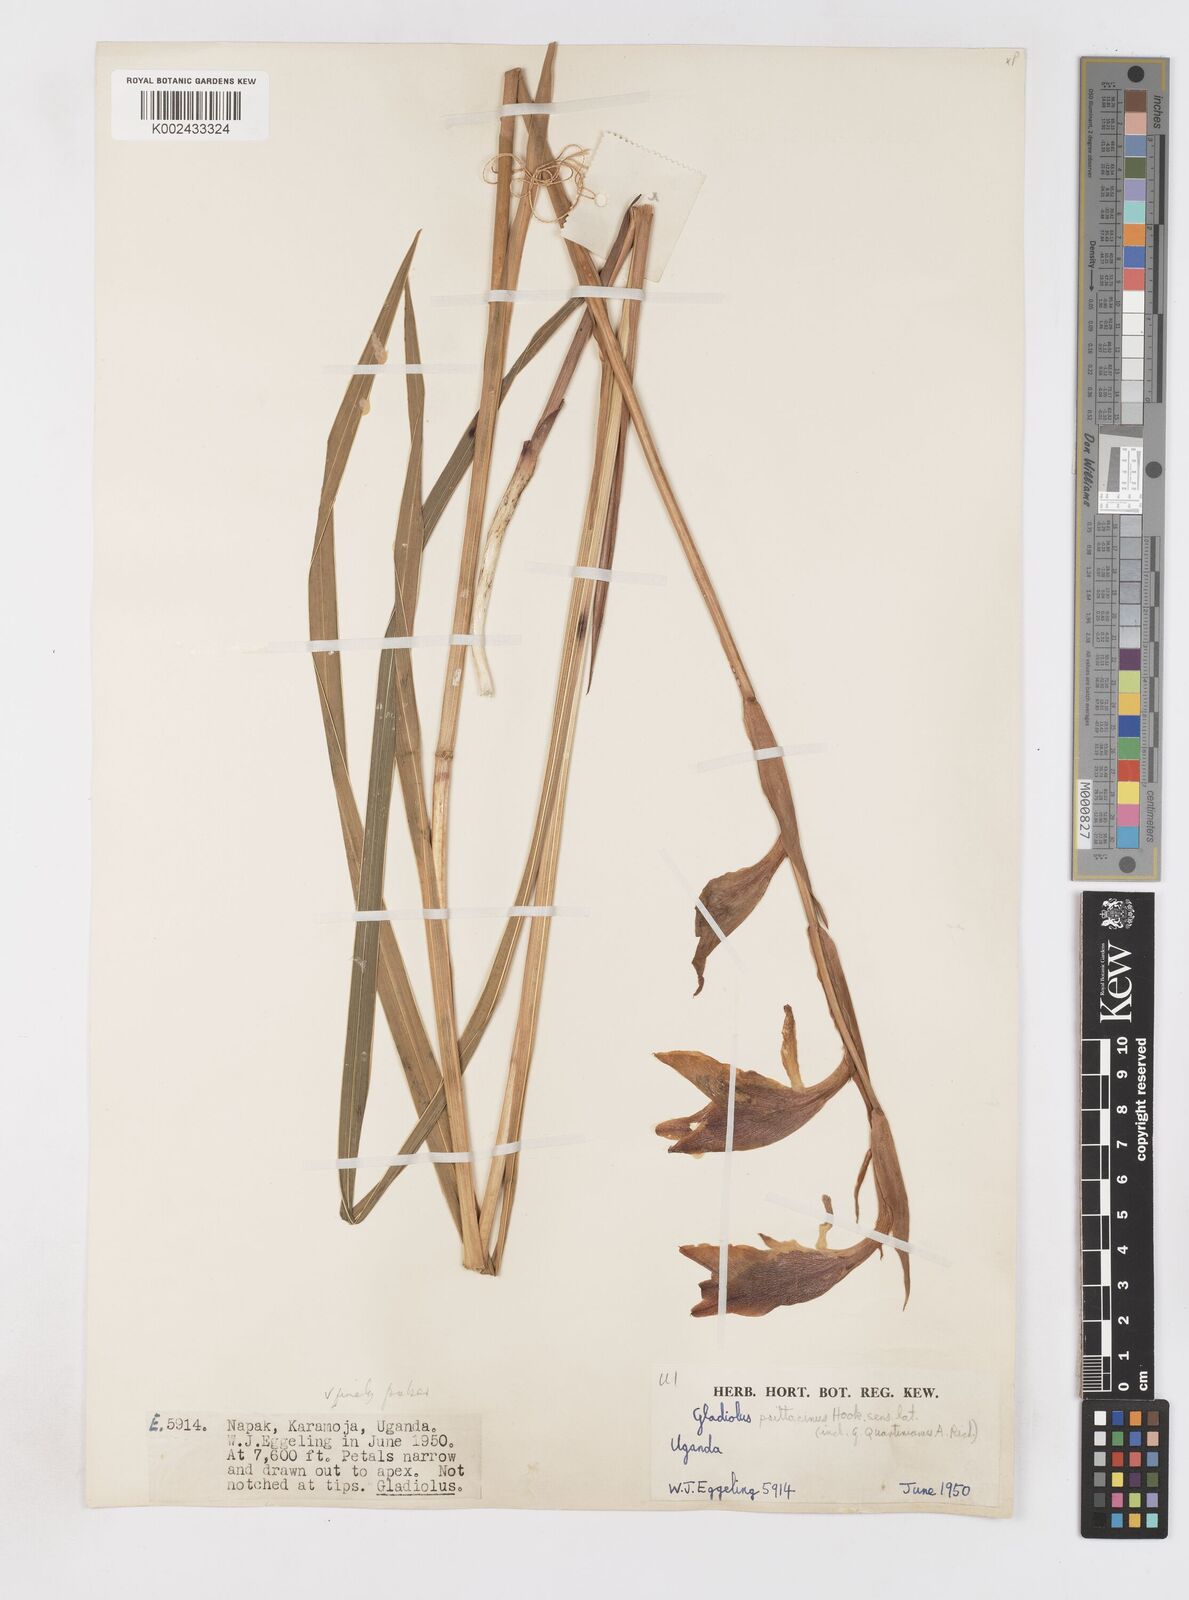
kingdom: Plantae
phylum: Tracheophyta
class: Liliopsida
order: Asparagales
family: Iridaceae
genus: Gladiolus
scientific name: Gladiolus dalenii
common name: Cornflag
